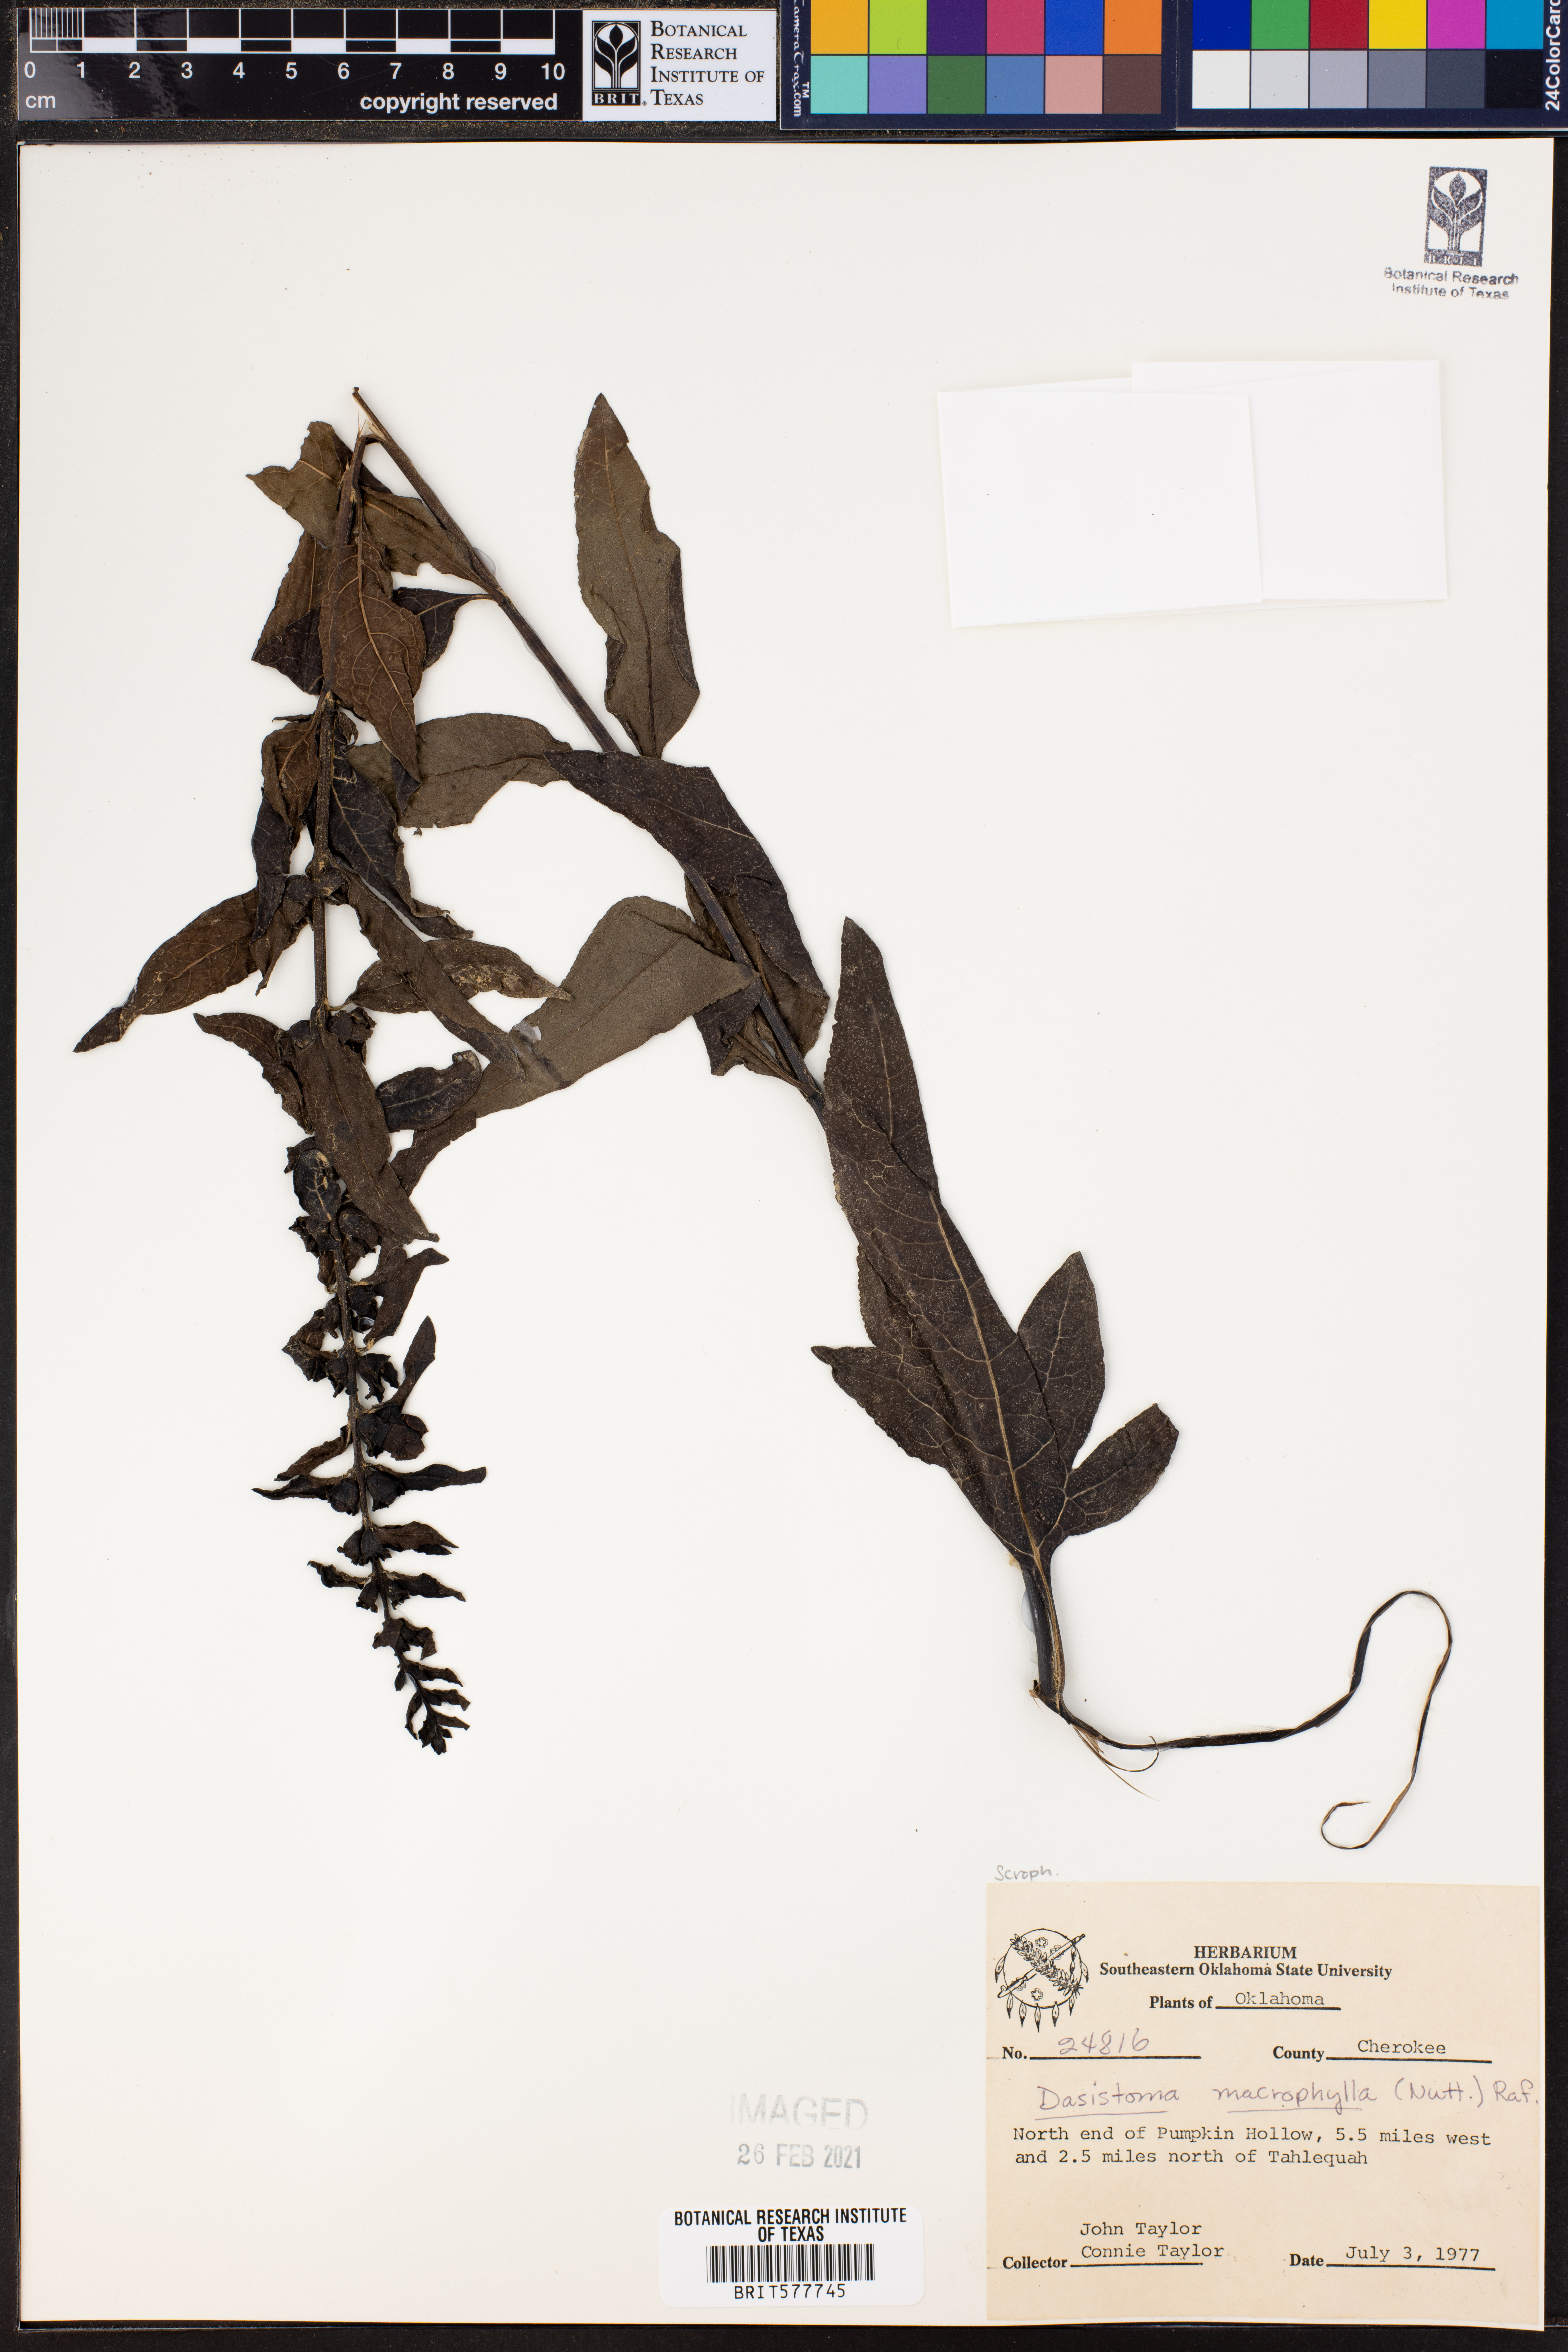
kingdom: Plantae
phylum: Tracheophyta
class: Magnoliopsida
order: Lamiales
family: Orobanchaceae
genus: Dasistoma
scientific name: Dasistoma macrophyllum
